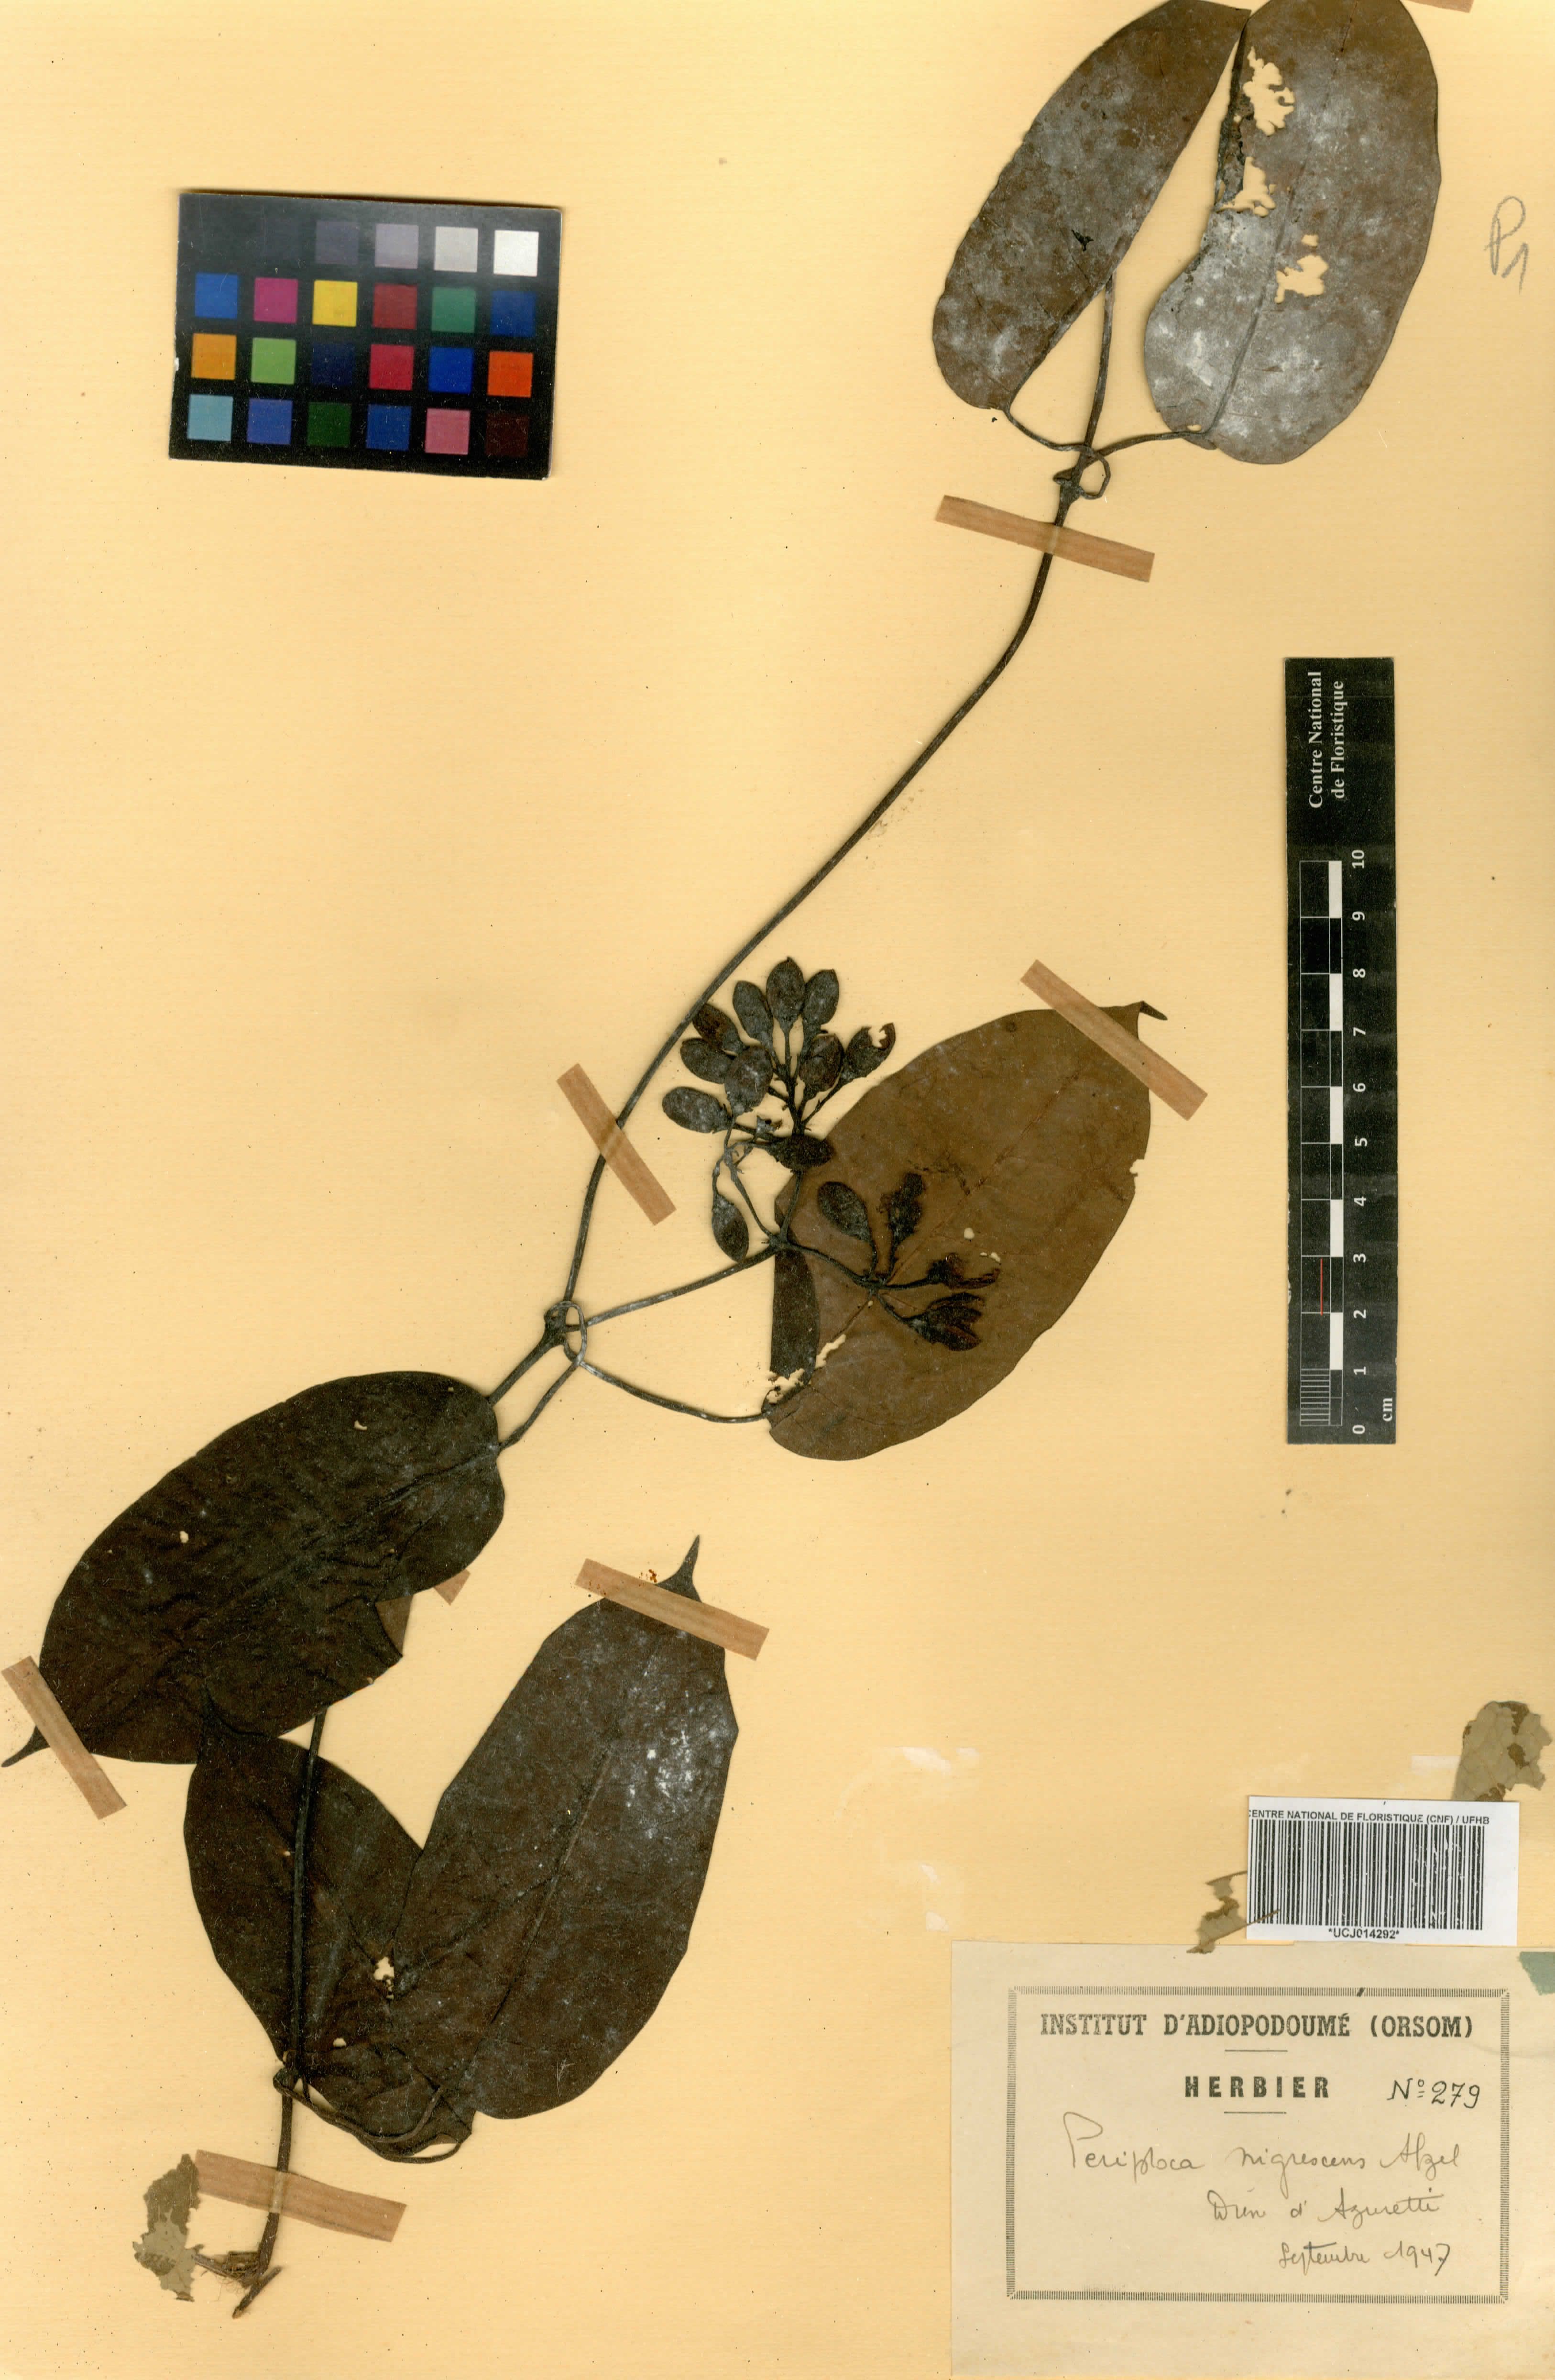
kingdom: Plantae
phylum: Tracheophyta
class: Magnoliopsida
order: Gentianales
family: Apocynaceae
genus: Cryptolepis
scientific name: Cryptolepis nigrescens
